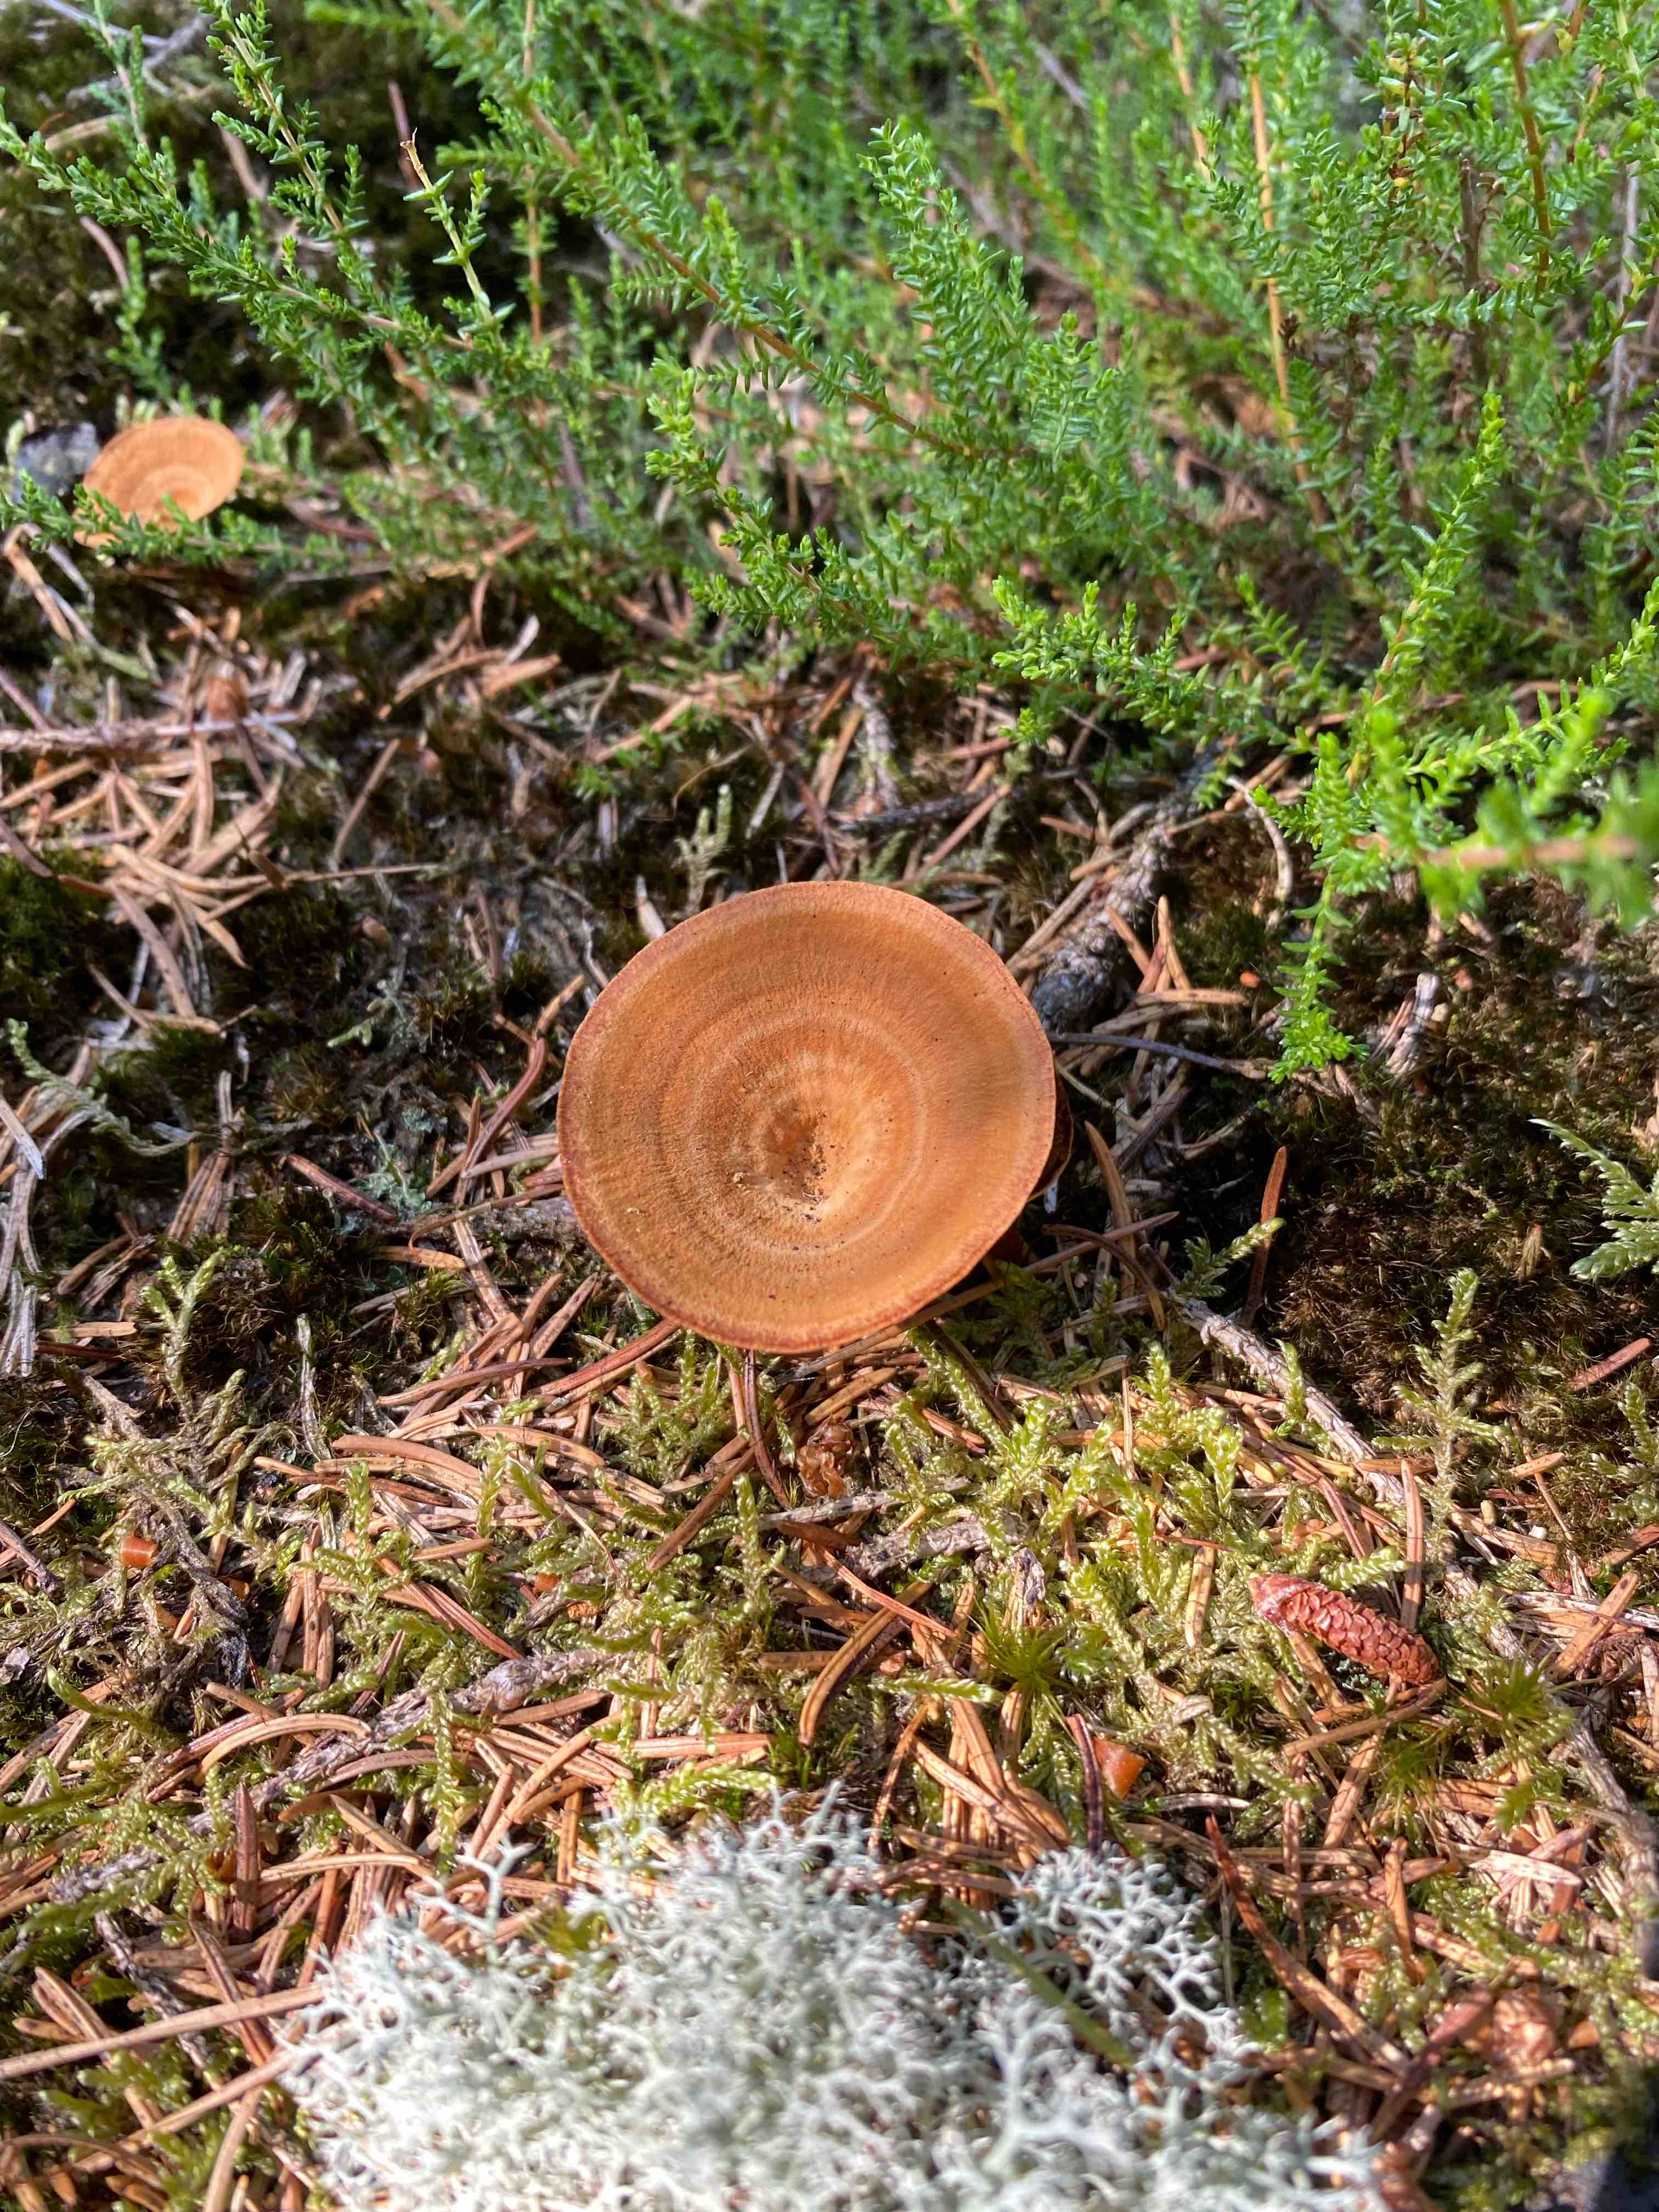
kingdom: Fungi
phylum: Basidiomycota
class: Agaricomycetes
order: Hymenochaetales
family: Hymenochaetaceae
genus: Coltricia
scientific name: Coltricia perennis
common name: almindelig sandporesvamp
